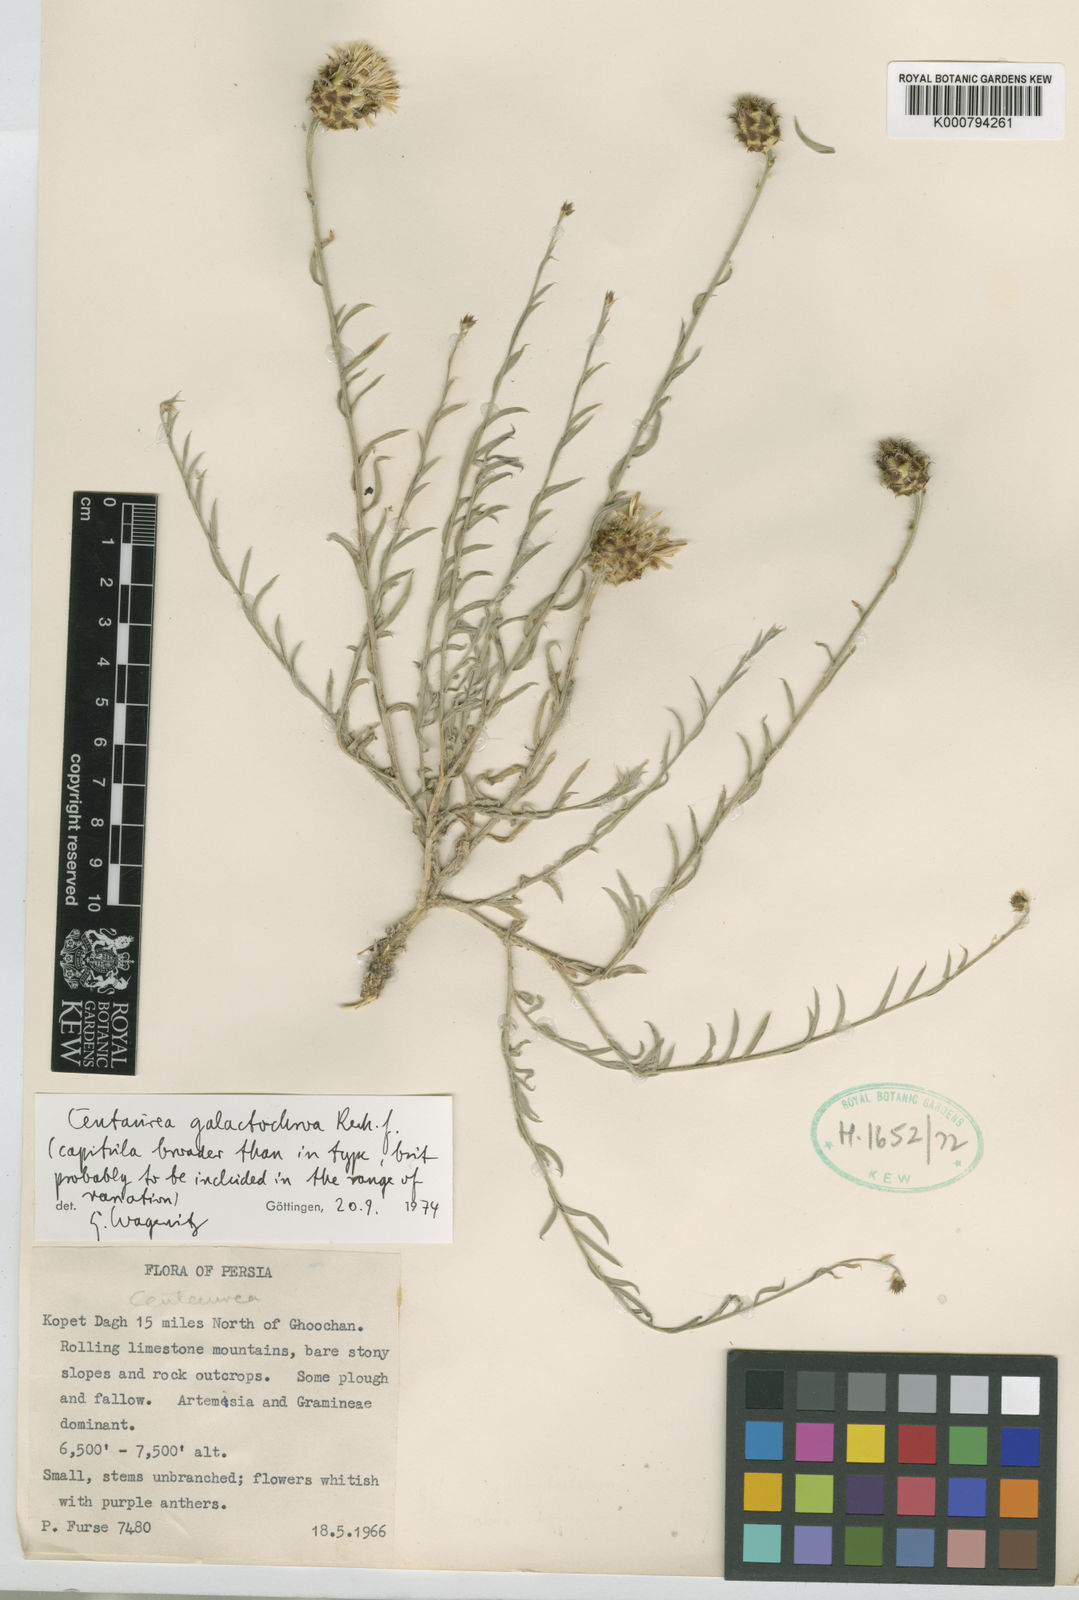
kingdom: Plantae
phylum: Tracheophyta
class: Magnoliopsida
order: Asterales
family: Asteraceae
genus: Psephellus
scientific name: Psephellus galactochroa
